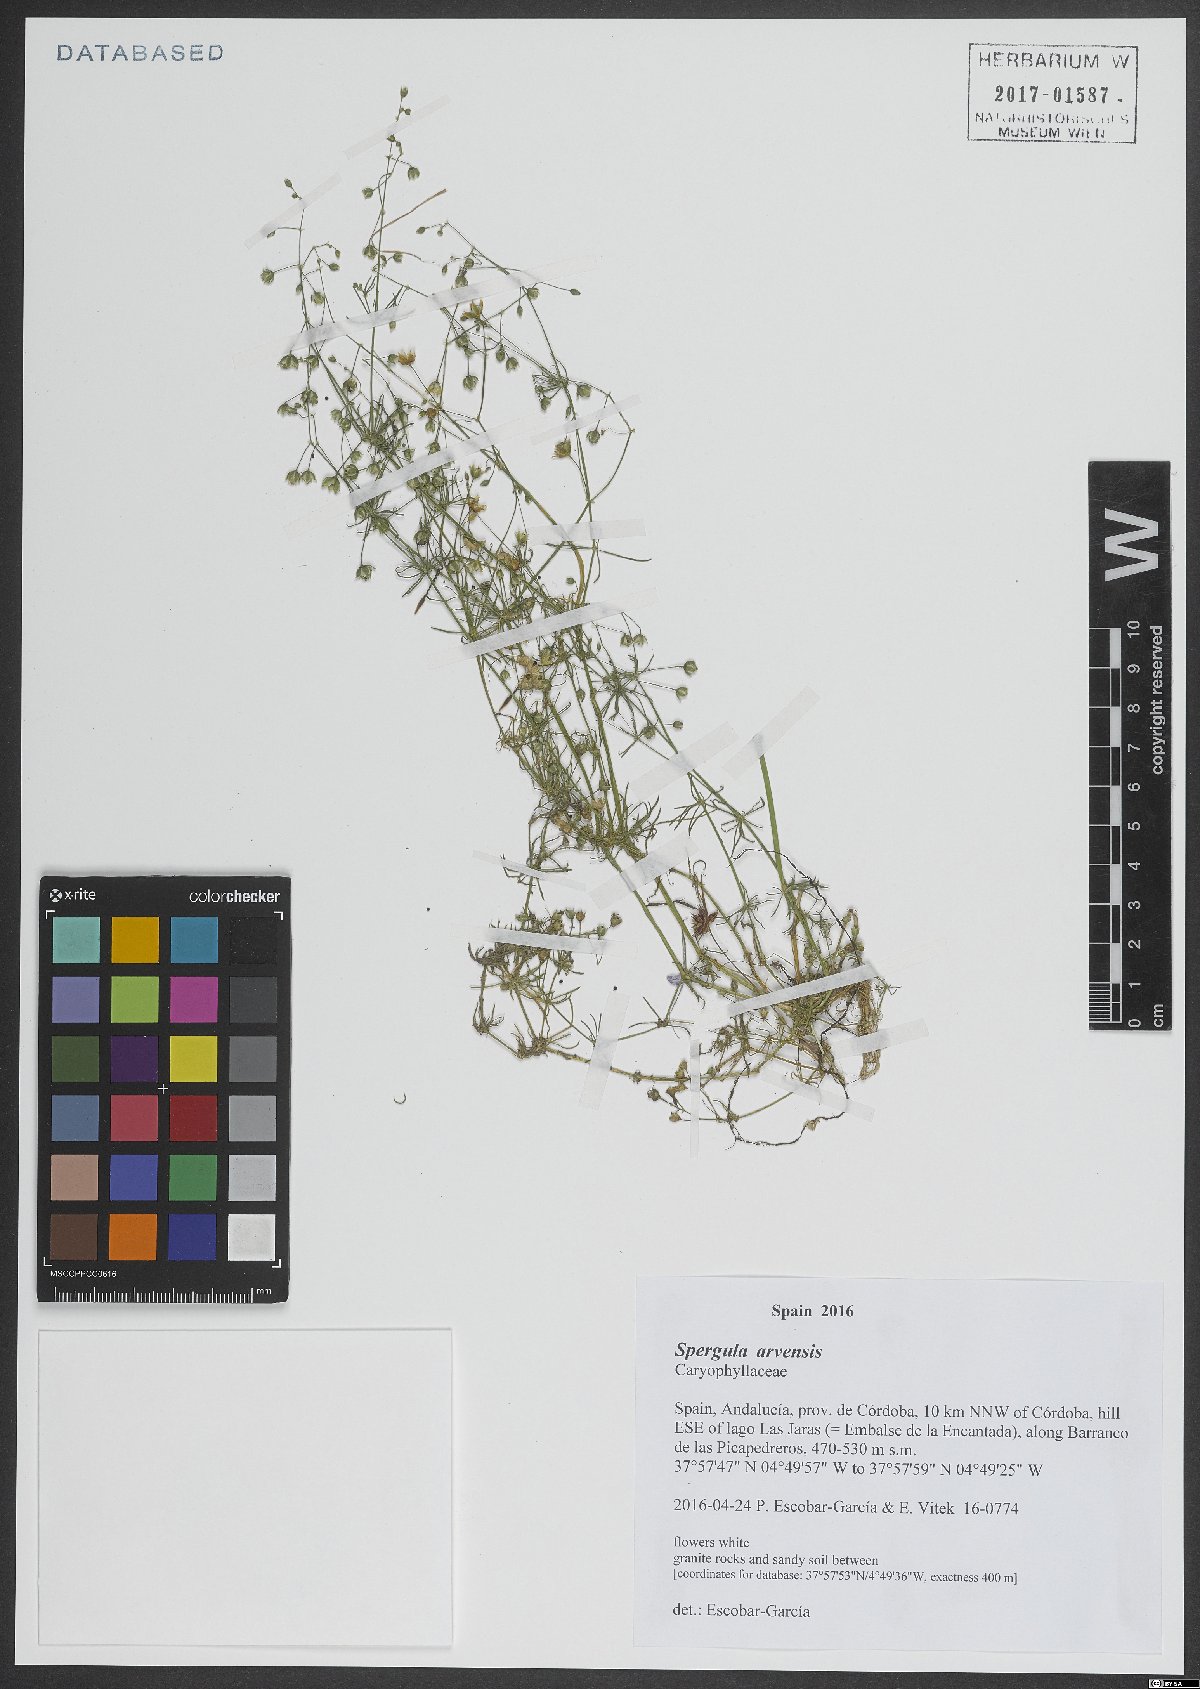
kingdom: Plantae
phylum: Tracheophyta
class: Magnoliopsida
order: Caryophyllales
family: Caryophyllaceae
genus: Spergula
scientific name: Spergula arvensis
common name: Corn spurrey
